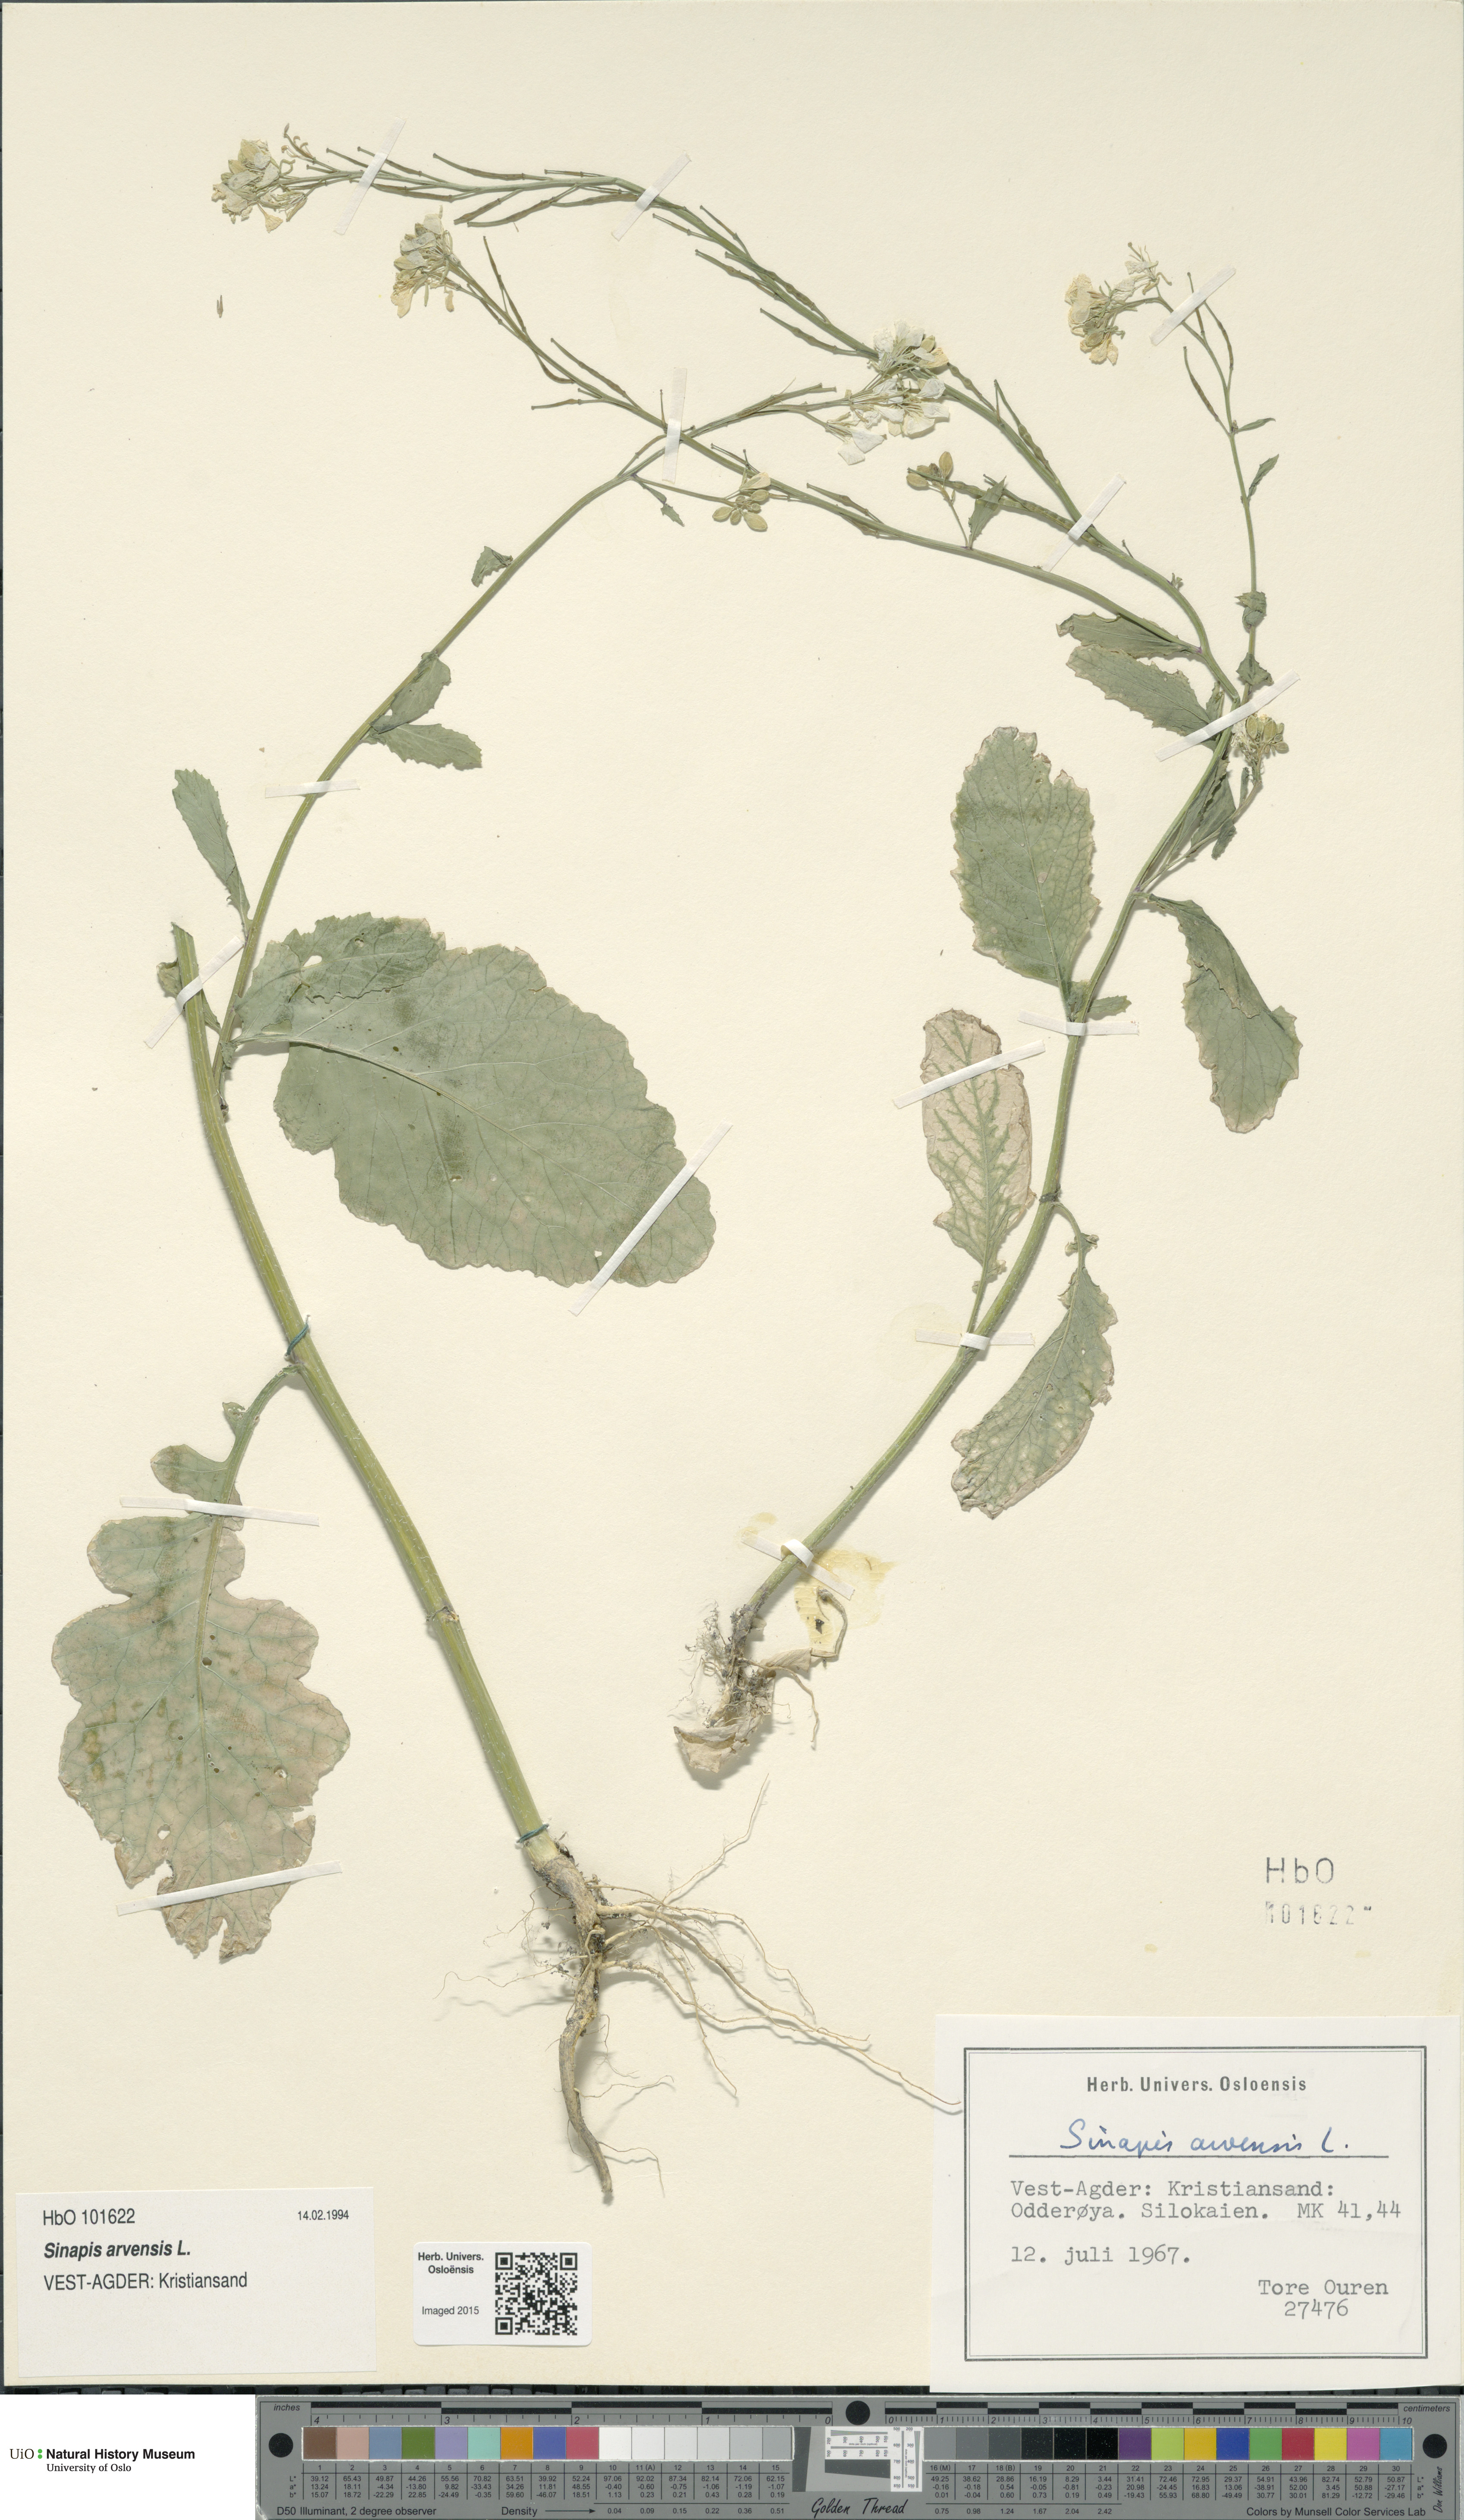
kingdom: Plantae
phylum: Tracheophyta
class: Magnoliopsida
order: Brassicales
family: Brassicaceae
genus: Sinapis
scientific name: Sinapis arvensis
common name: Charlock
